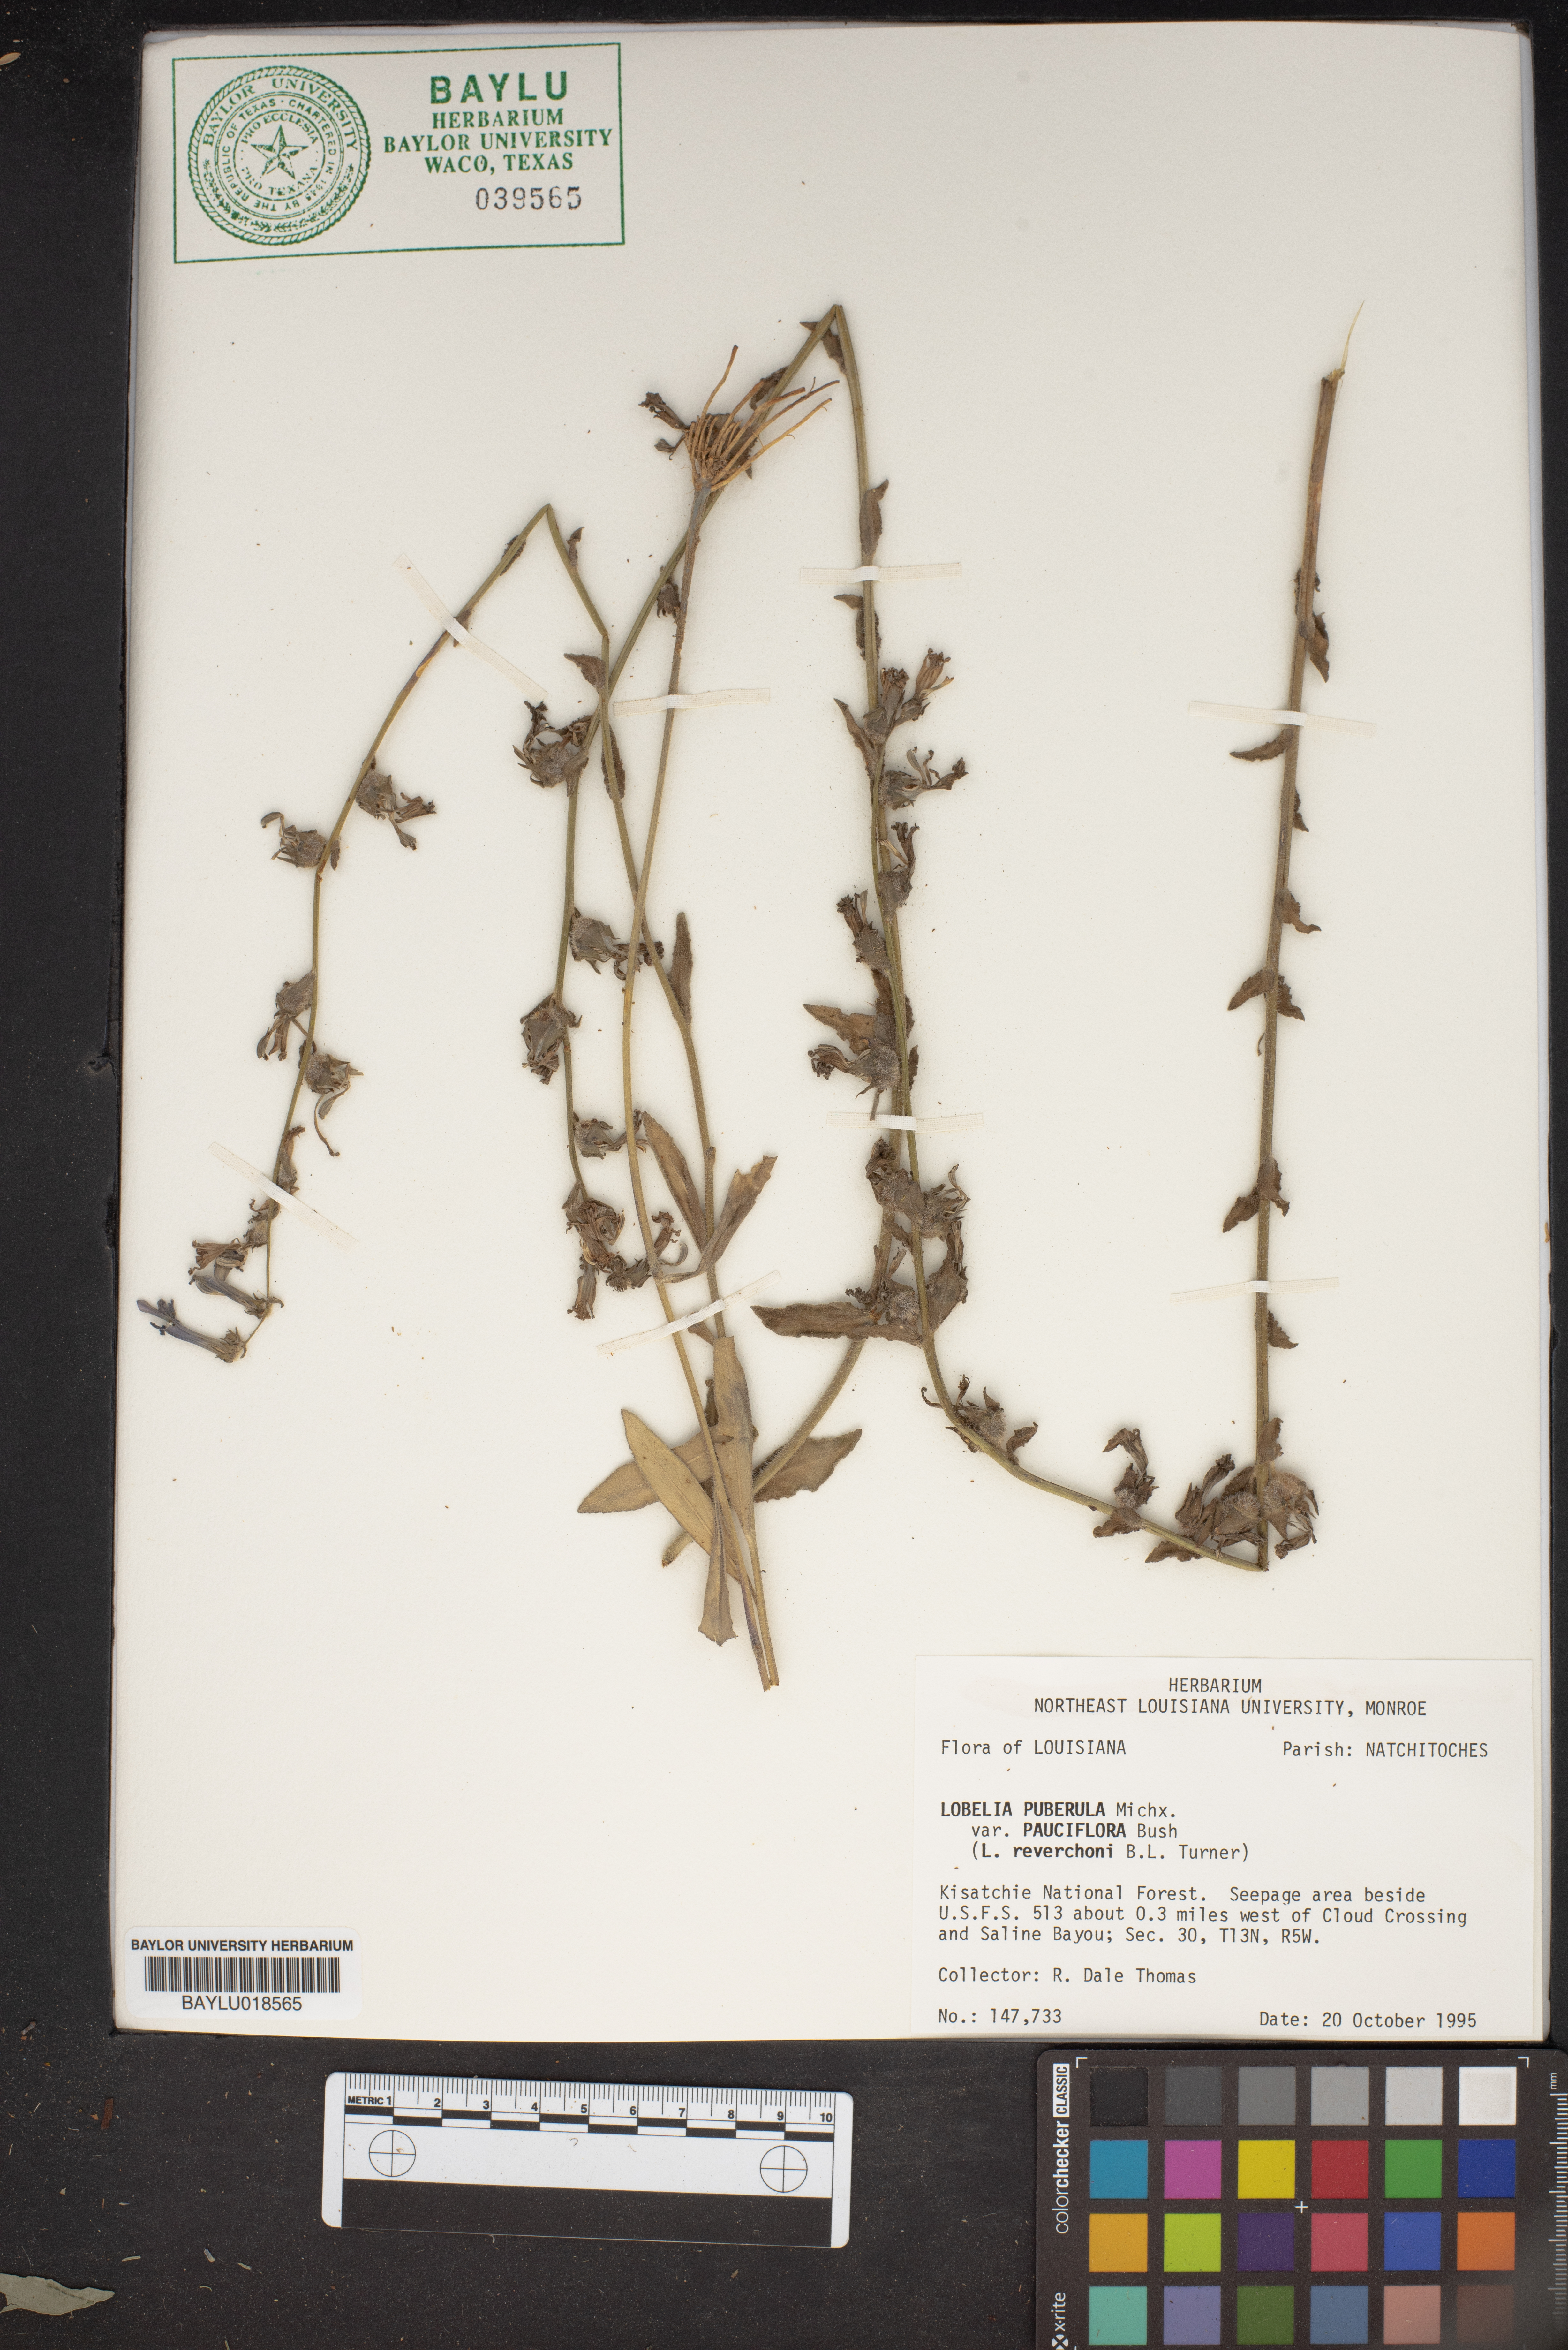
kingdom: Plantae
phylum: Tracheophyta
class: Magnoliopsida
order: Asterales
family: Campanulaceae
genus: Lobelia
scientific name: Lobelia reverchonii
